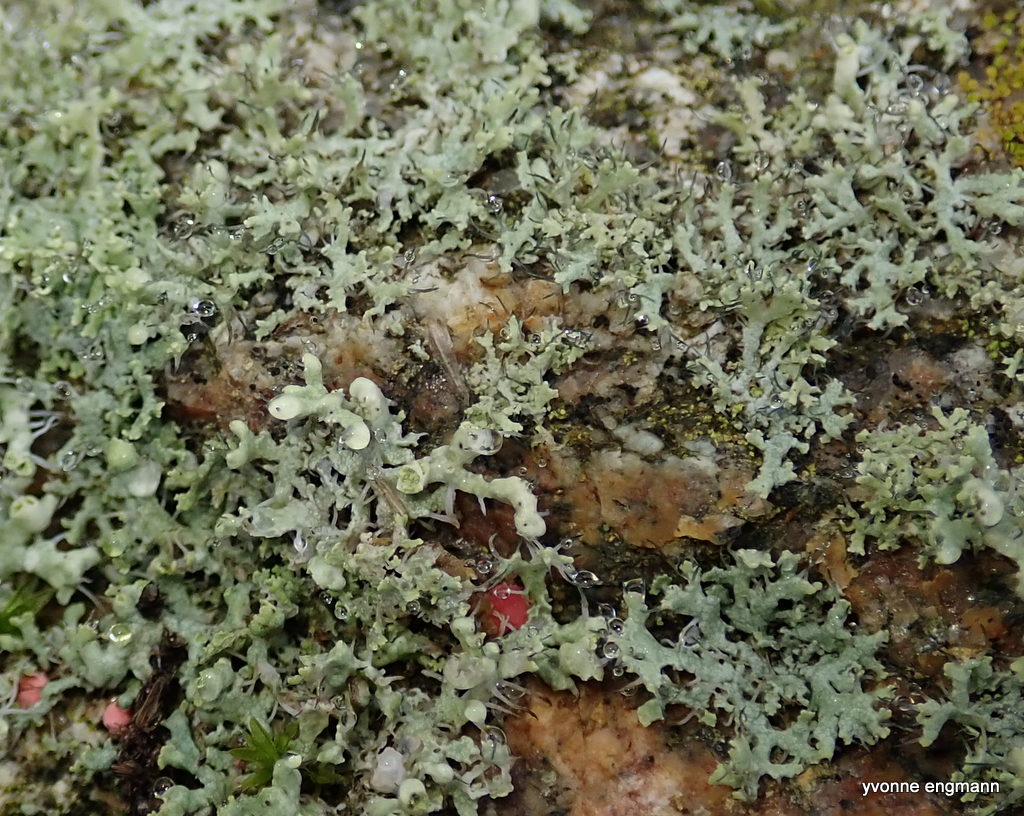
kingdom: Fungi
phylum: Ascomycota
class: Lecanoromycetes
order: Caliciales
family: Physciaceae
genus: Physcia
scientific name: Physcia adscendens
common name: hætte-rosetlav
